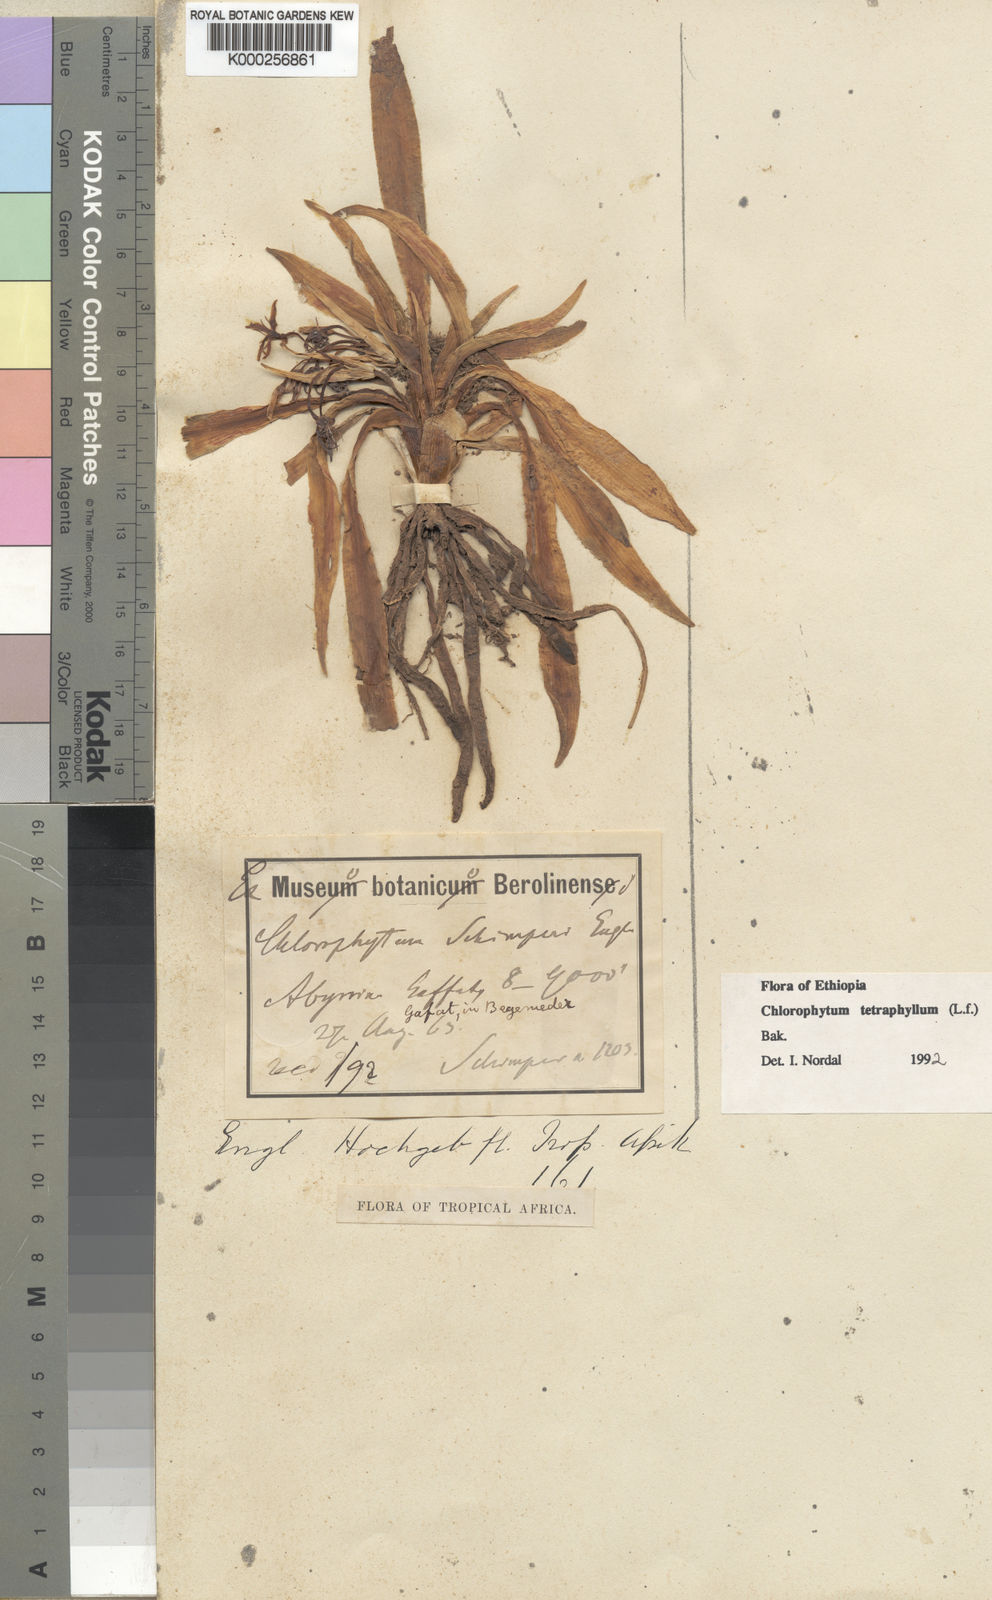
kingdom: Plantae
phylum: Tracheophyta
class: Liliopsida
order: Asparagales
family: Asparagaceae
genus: Chlorophytum
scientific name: Chlorophytum tetraphyllum
